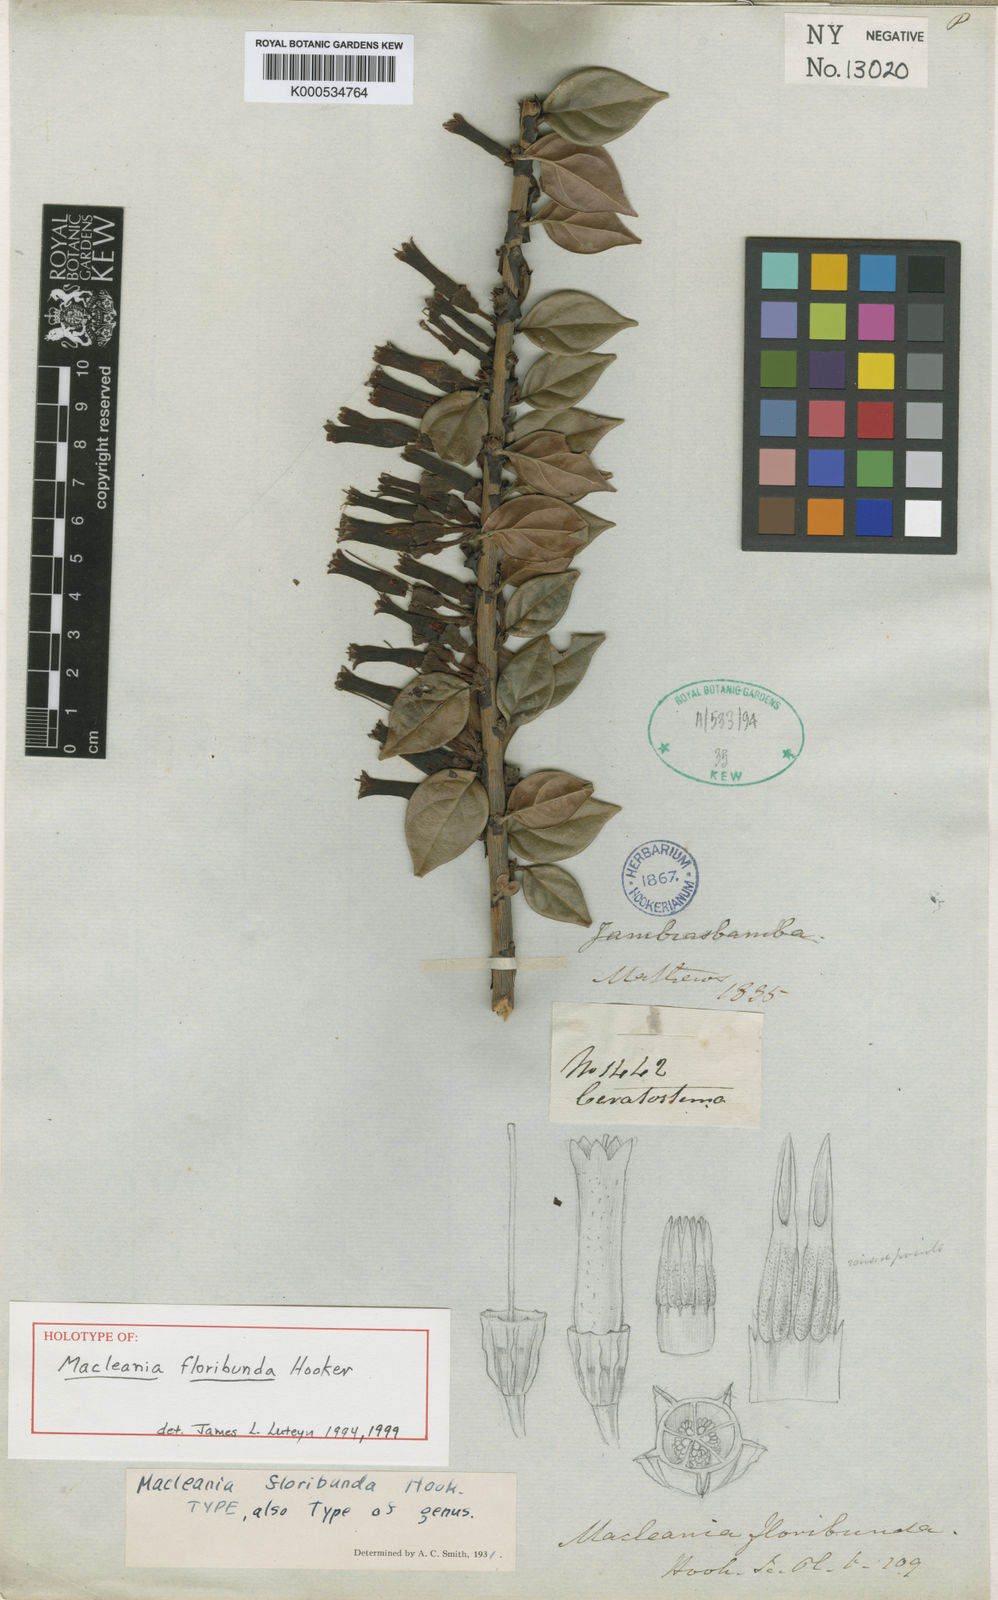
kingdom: Plantae
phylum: Tracheophyta
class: Magnoliopsida
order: Ericales
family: Ericaceae
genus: Macleania
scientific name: Macleania floribunda
